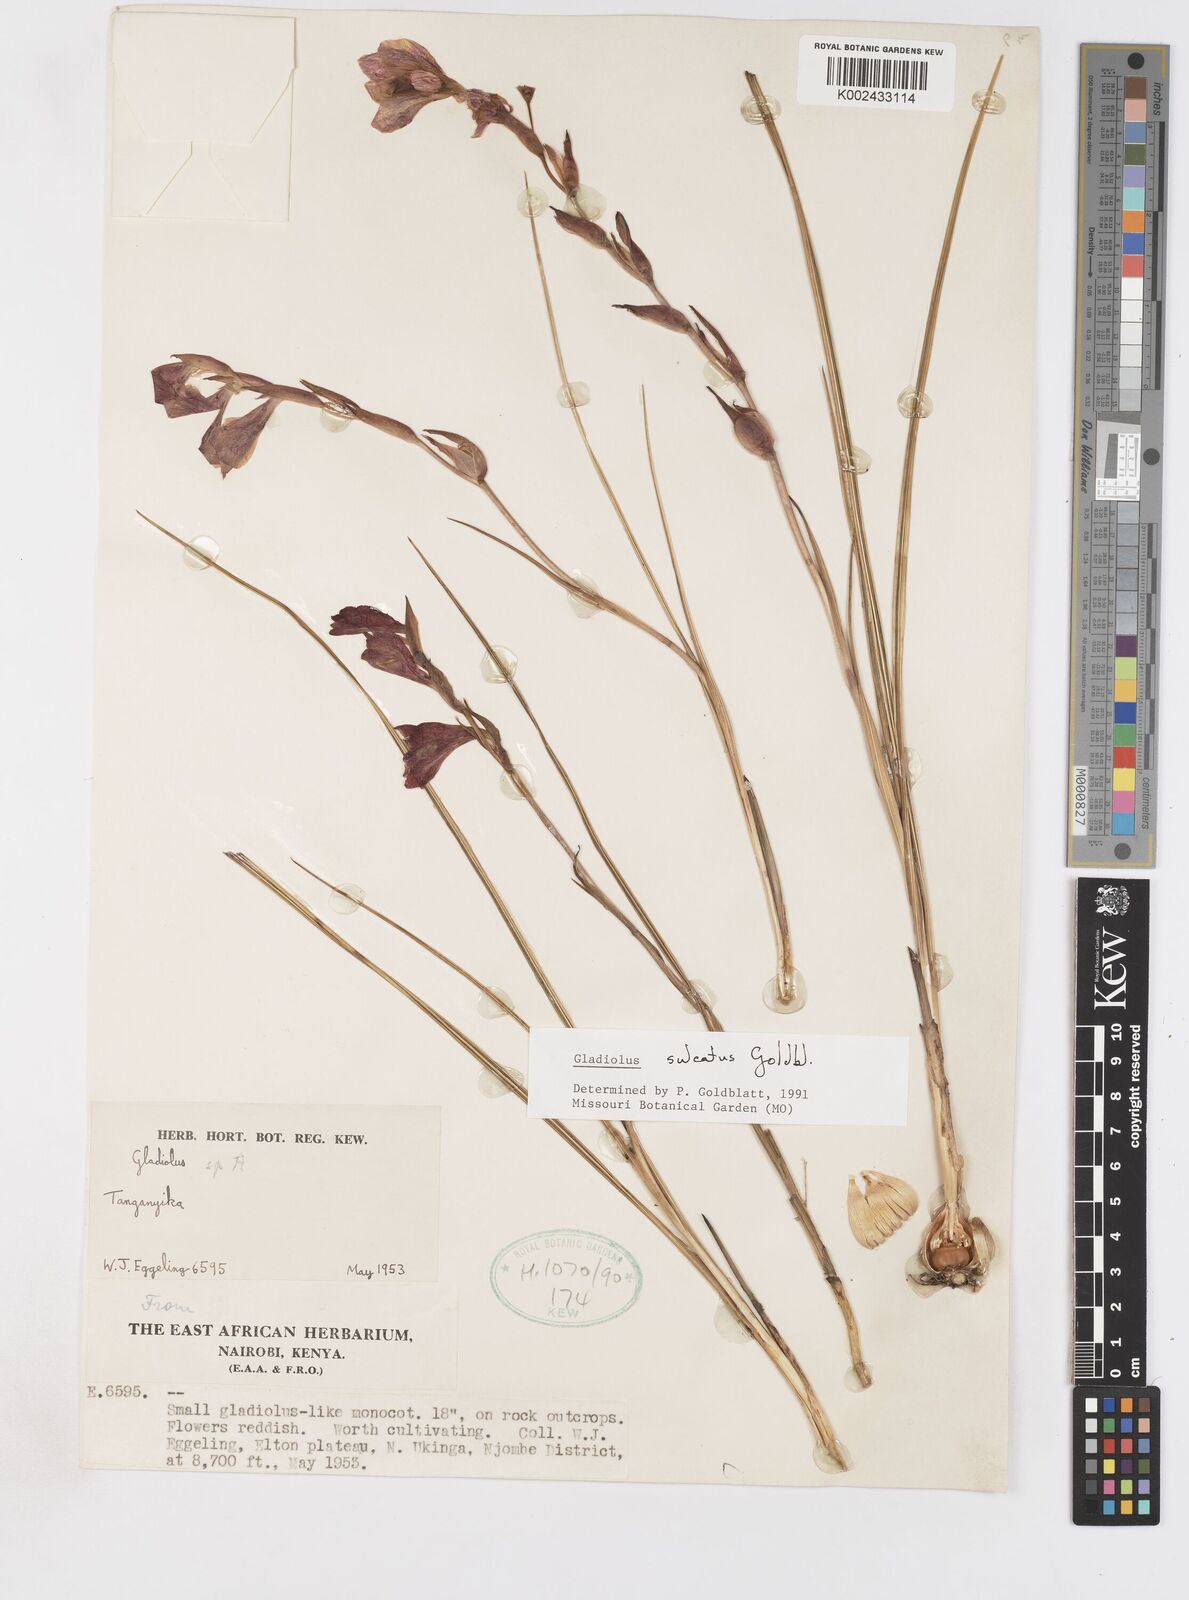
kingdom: Plantae
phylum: Tracheophyta
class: Liliopsida
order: Asparagales
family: Iridaceae
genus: Gladiolus
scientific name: Gladiolus sulculatus
